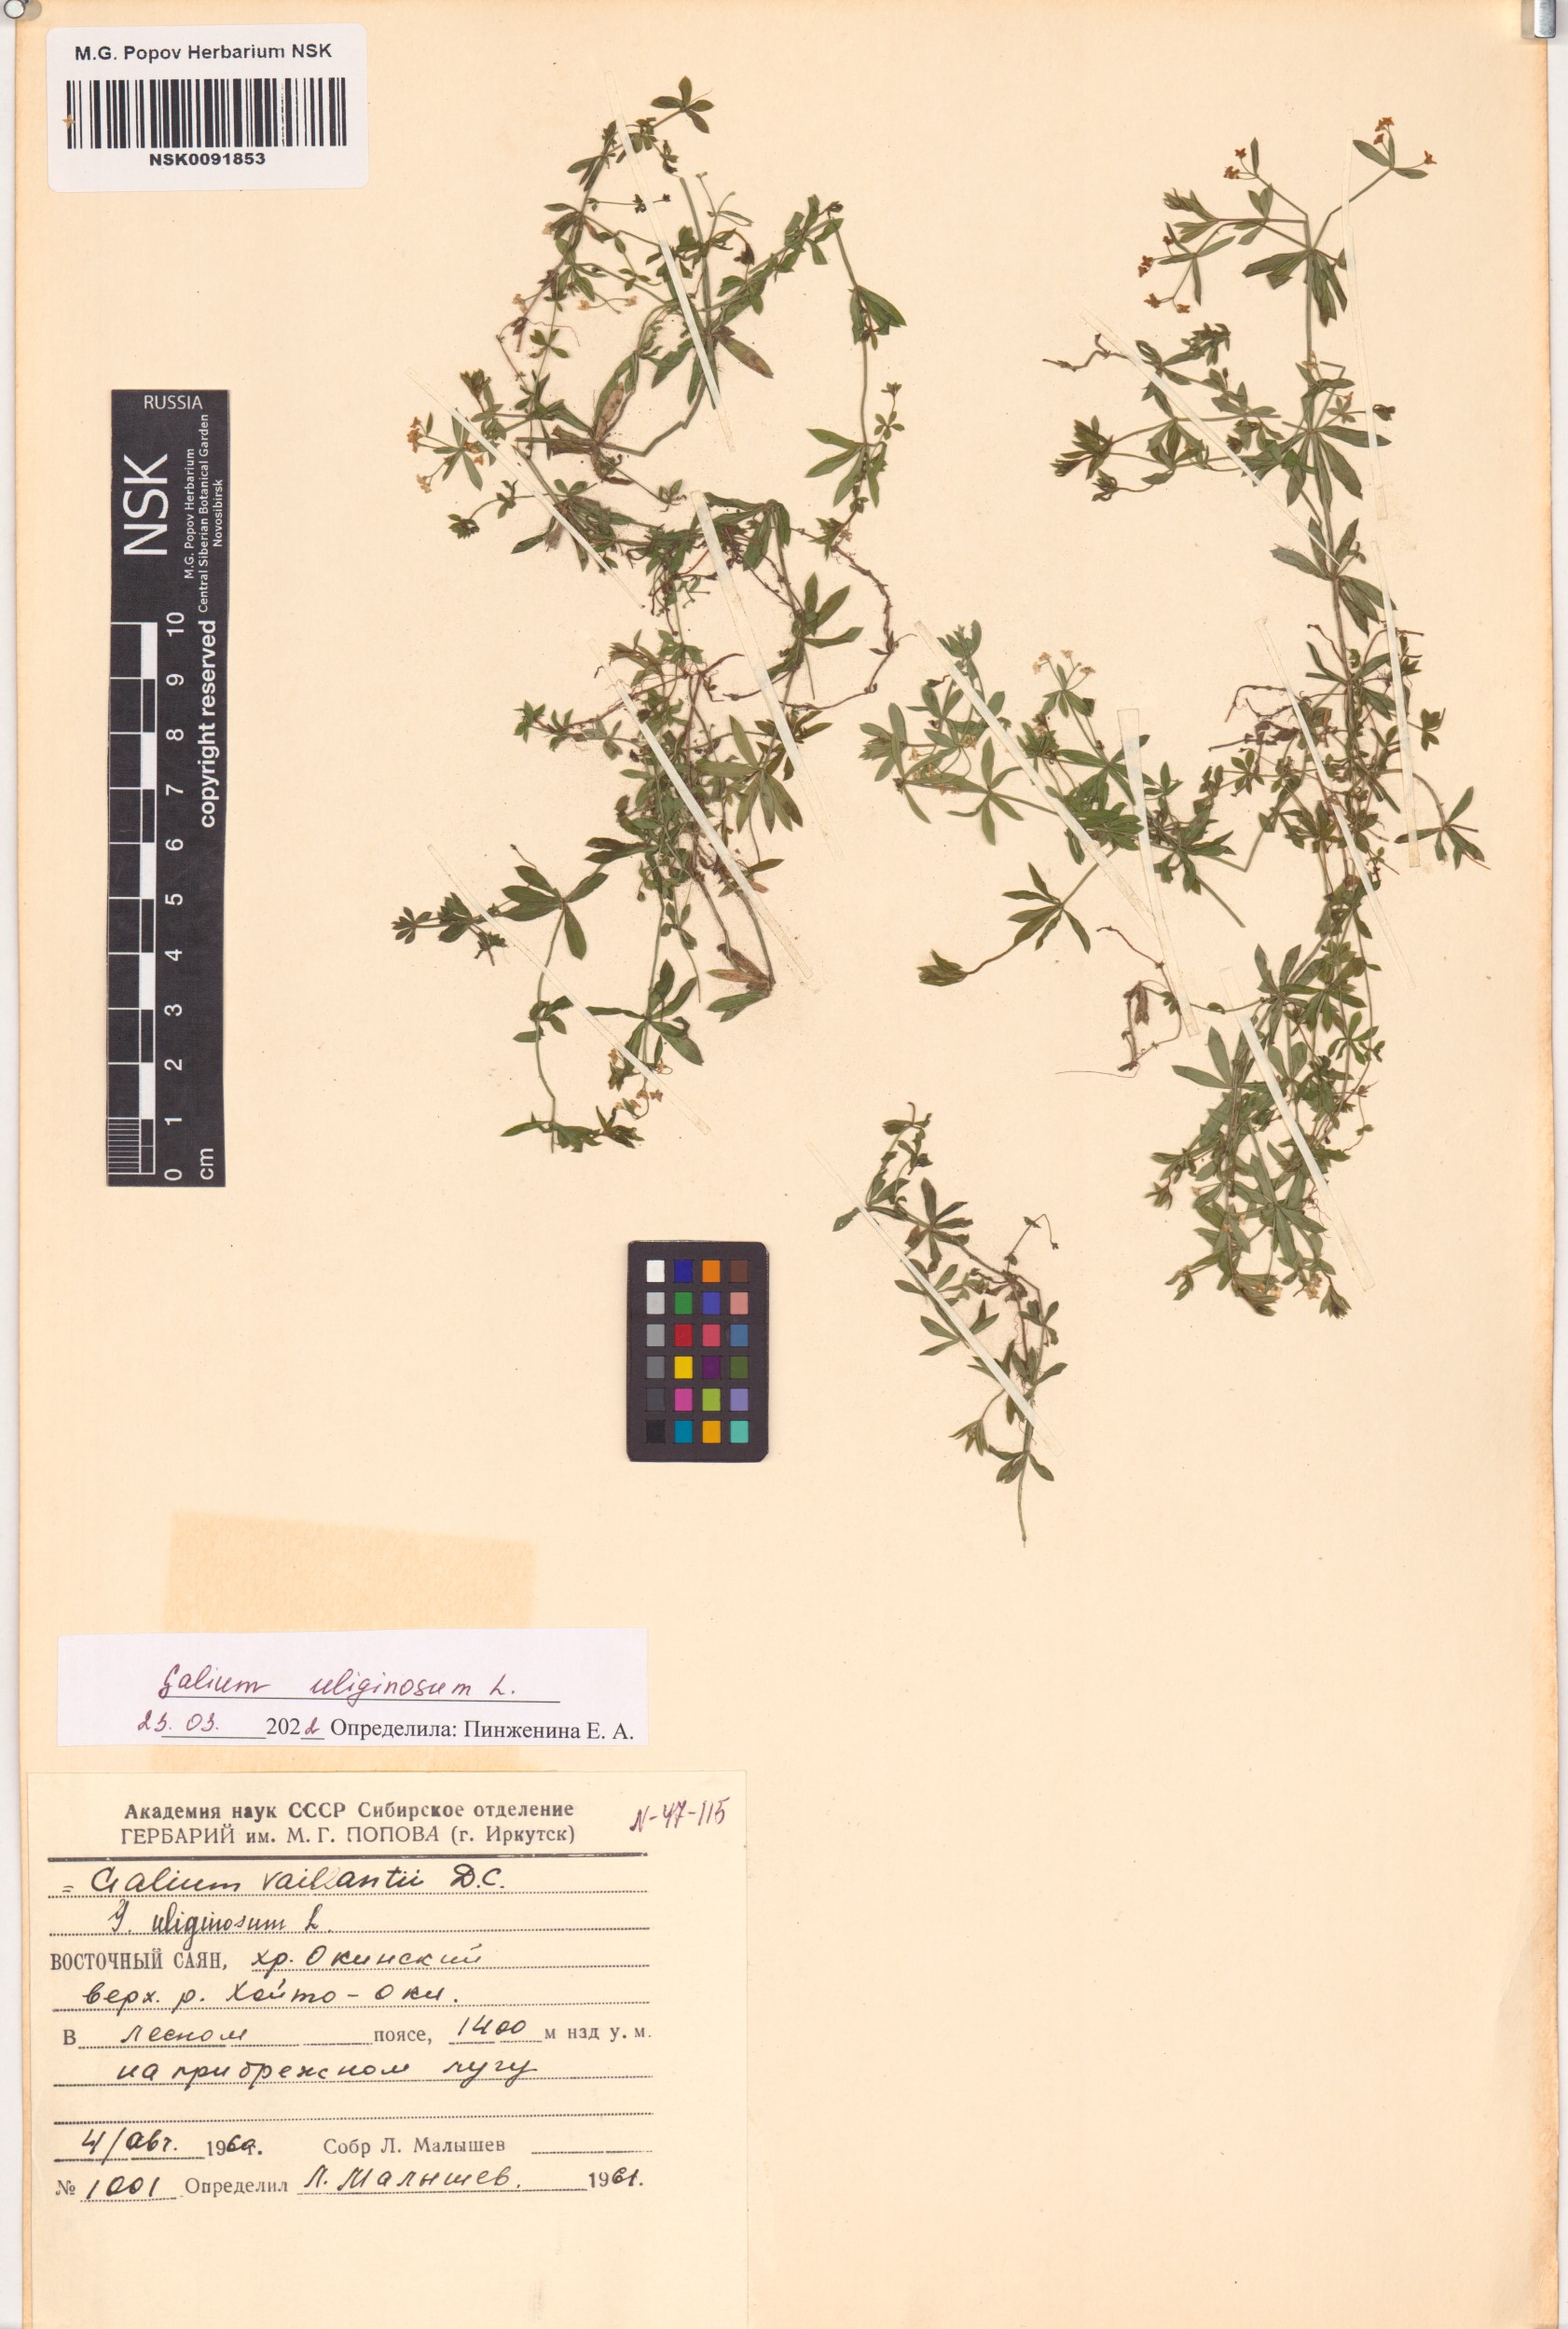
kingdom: Plantae
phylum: Tracheophyta
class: Magnoliopsida
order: Gentianales
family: Rubiaceae
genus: Galium
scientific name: Galium uliginosum
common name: Fen bedstraw
